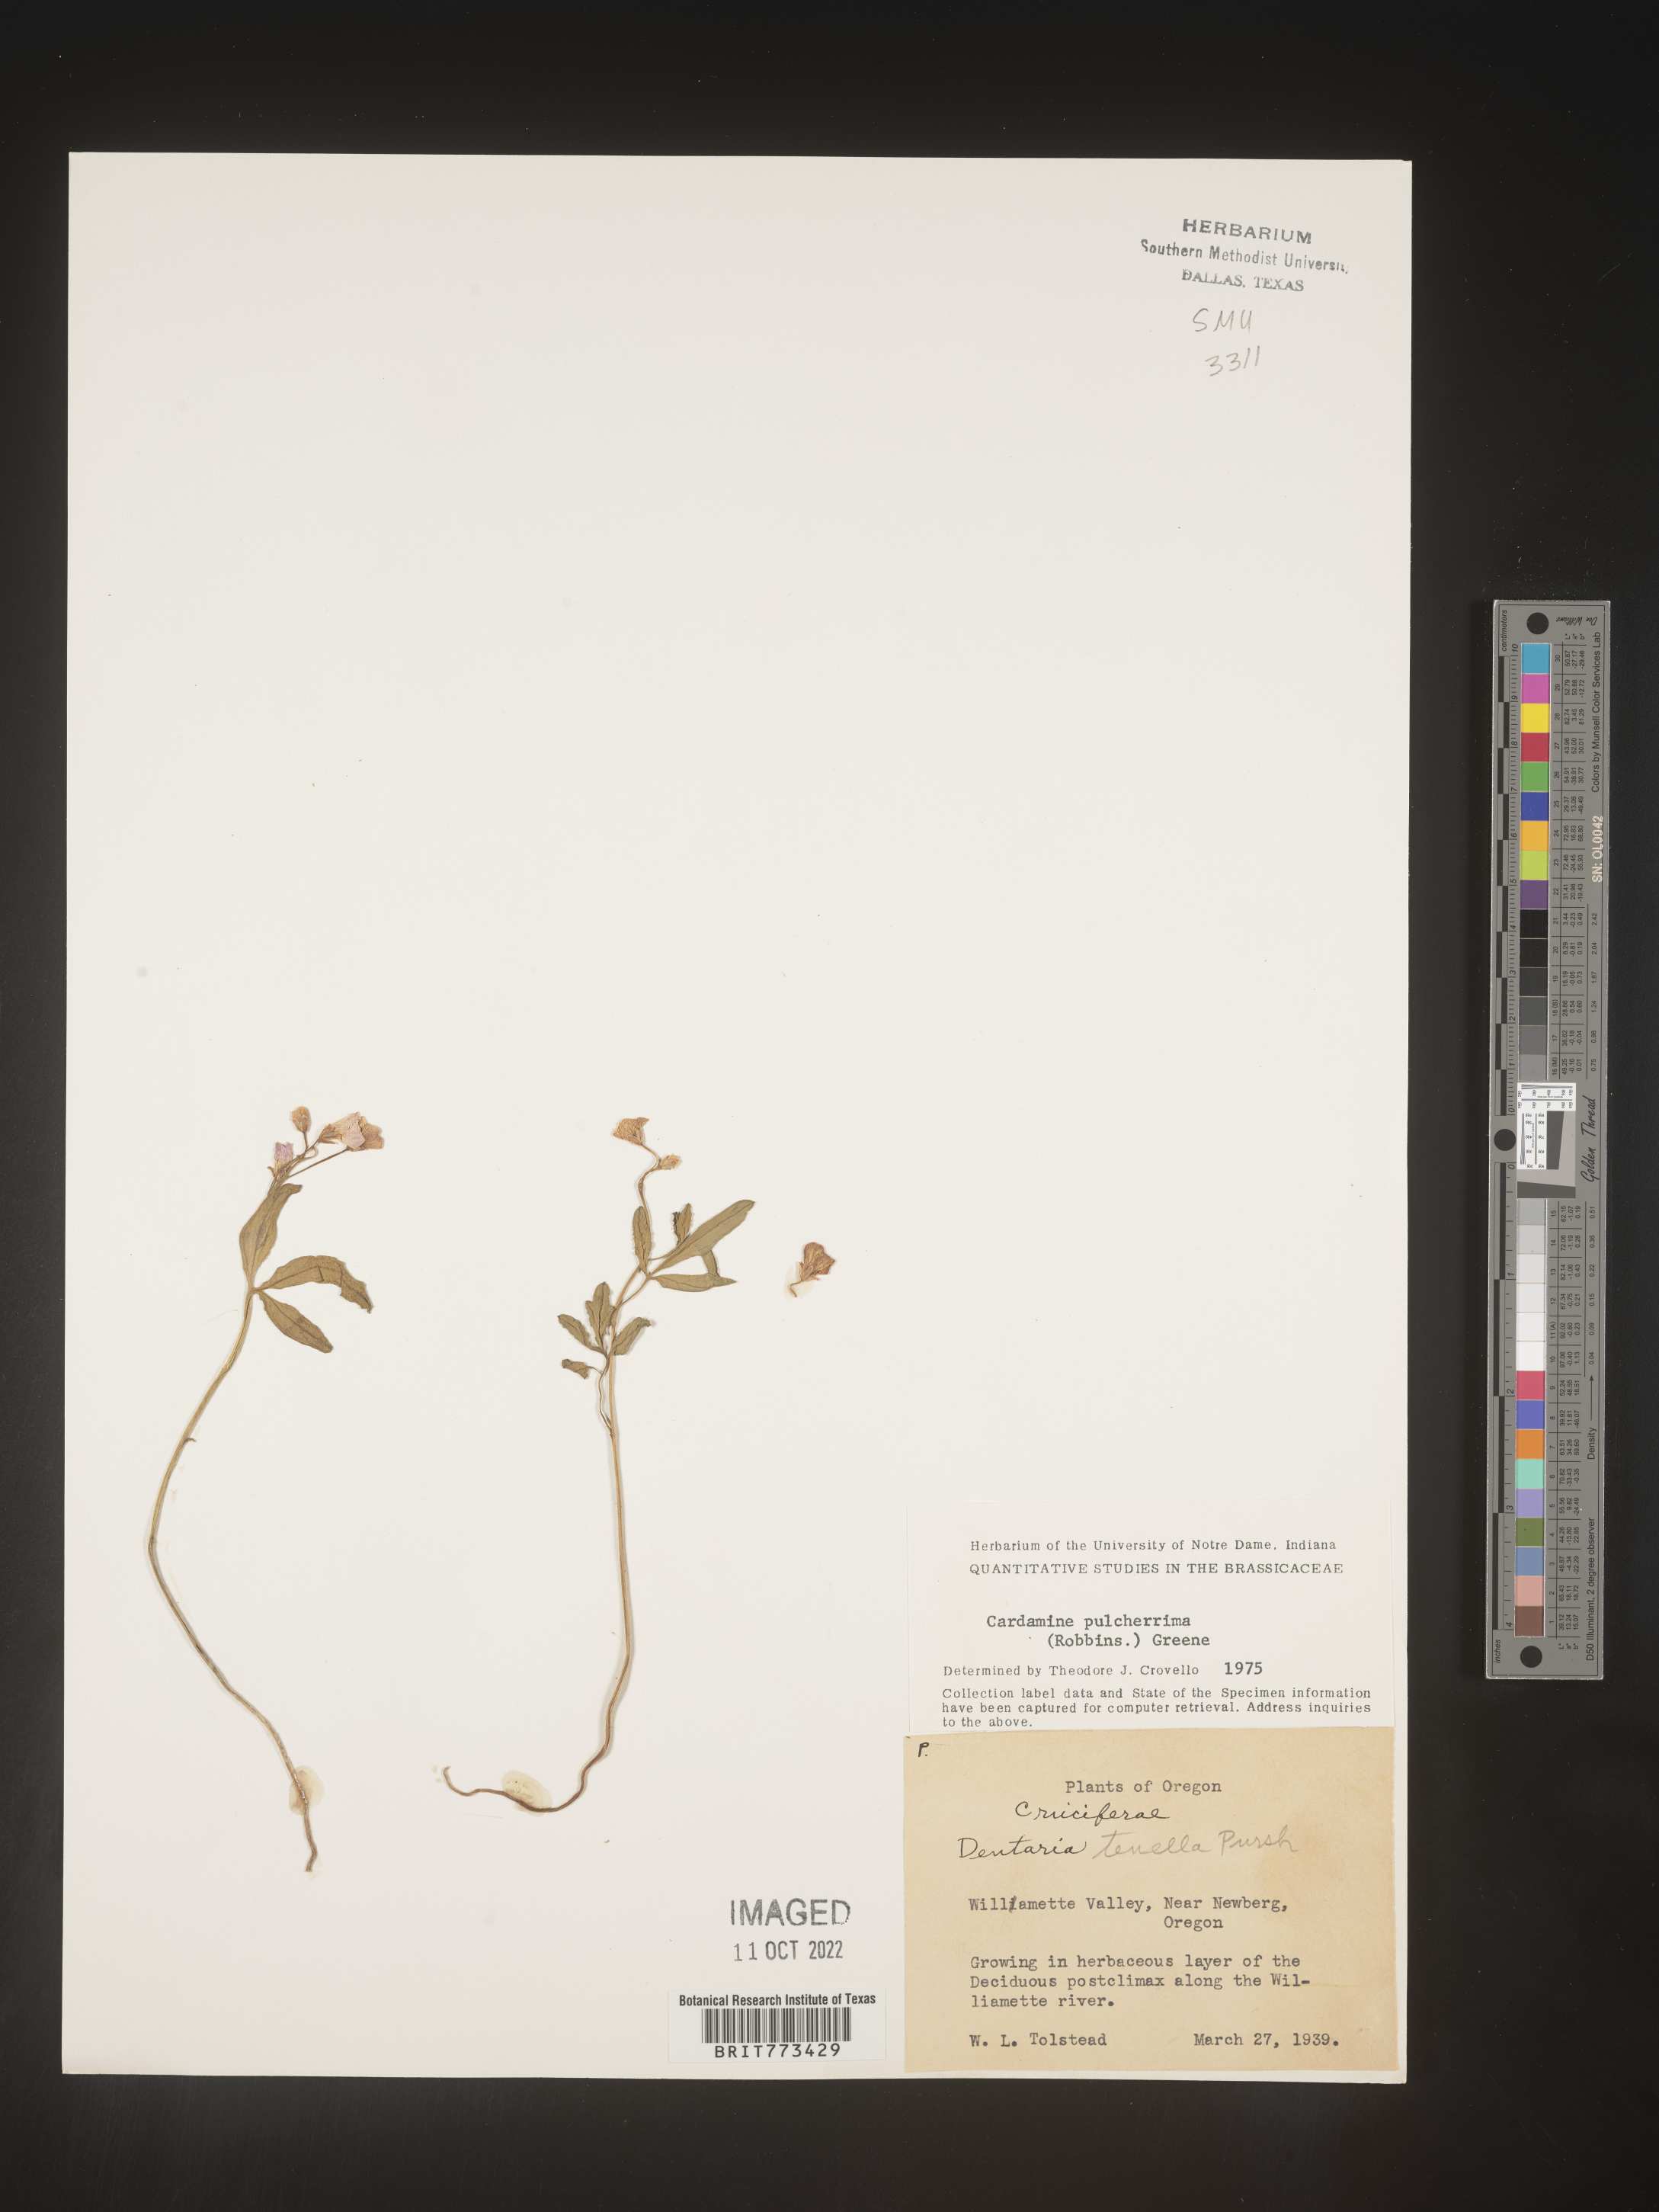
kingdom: Plantae
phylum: Tracheophyta
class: Magnoliopsida
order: Brassicales
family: Brassicaceae
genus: Cardamine
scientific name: Cardamine
